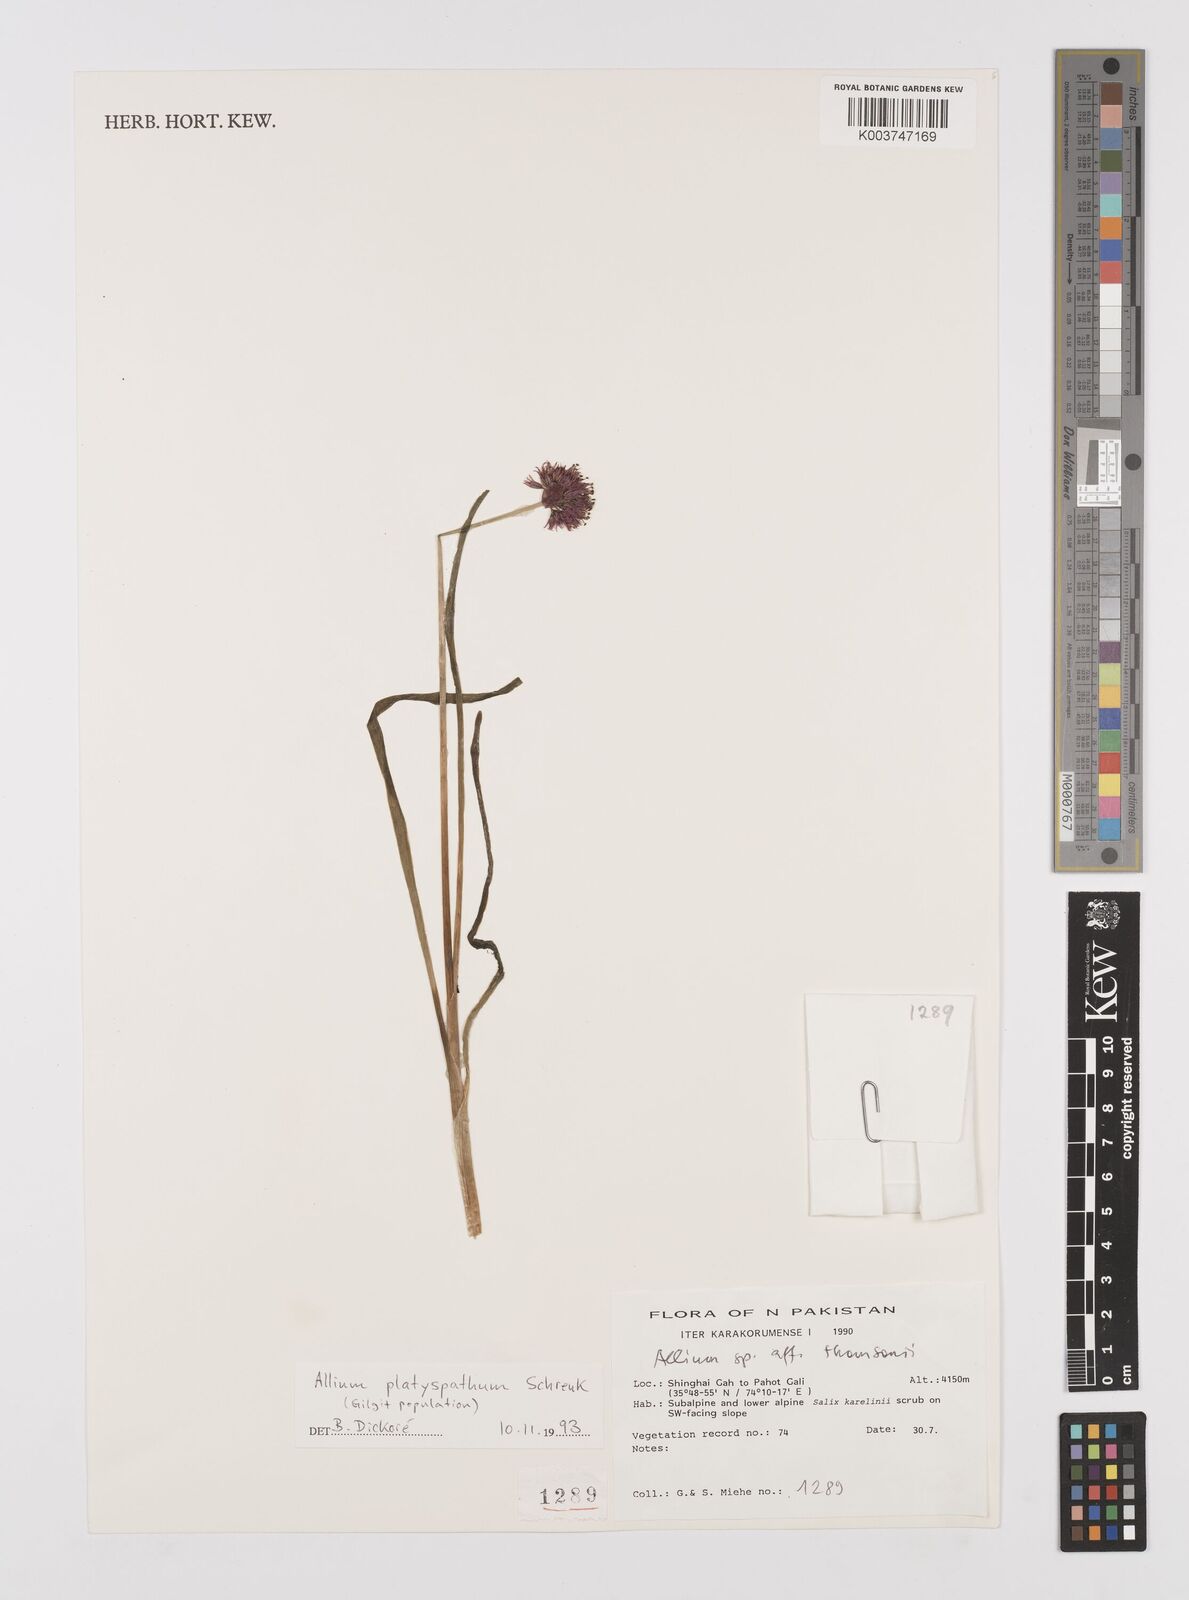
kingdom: Plantae
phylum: Tracheophyta
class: Liliopsida
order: Asparagales
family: Amaryllidaceae
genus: Allium
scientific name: Allium platyspathum
